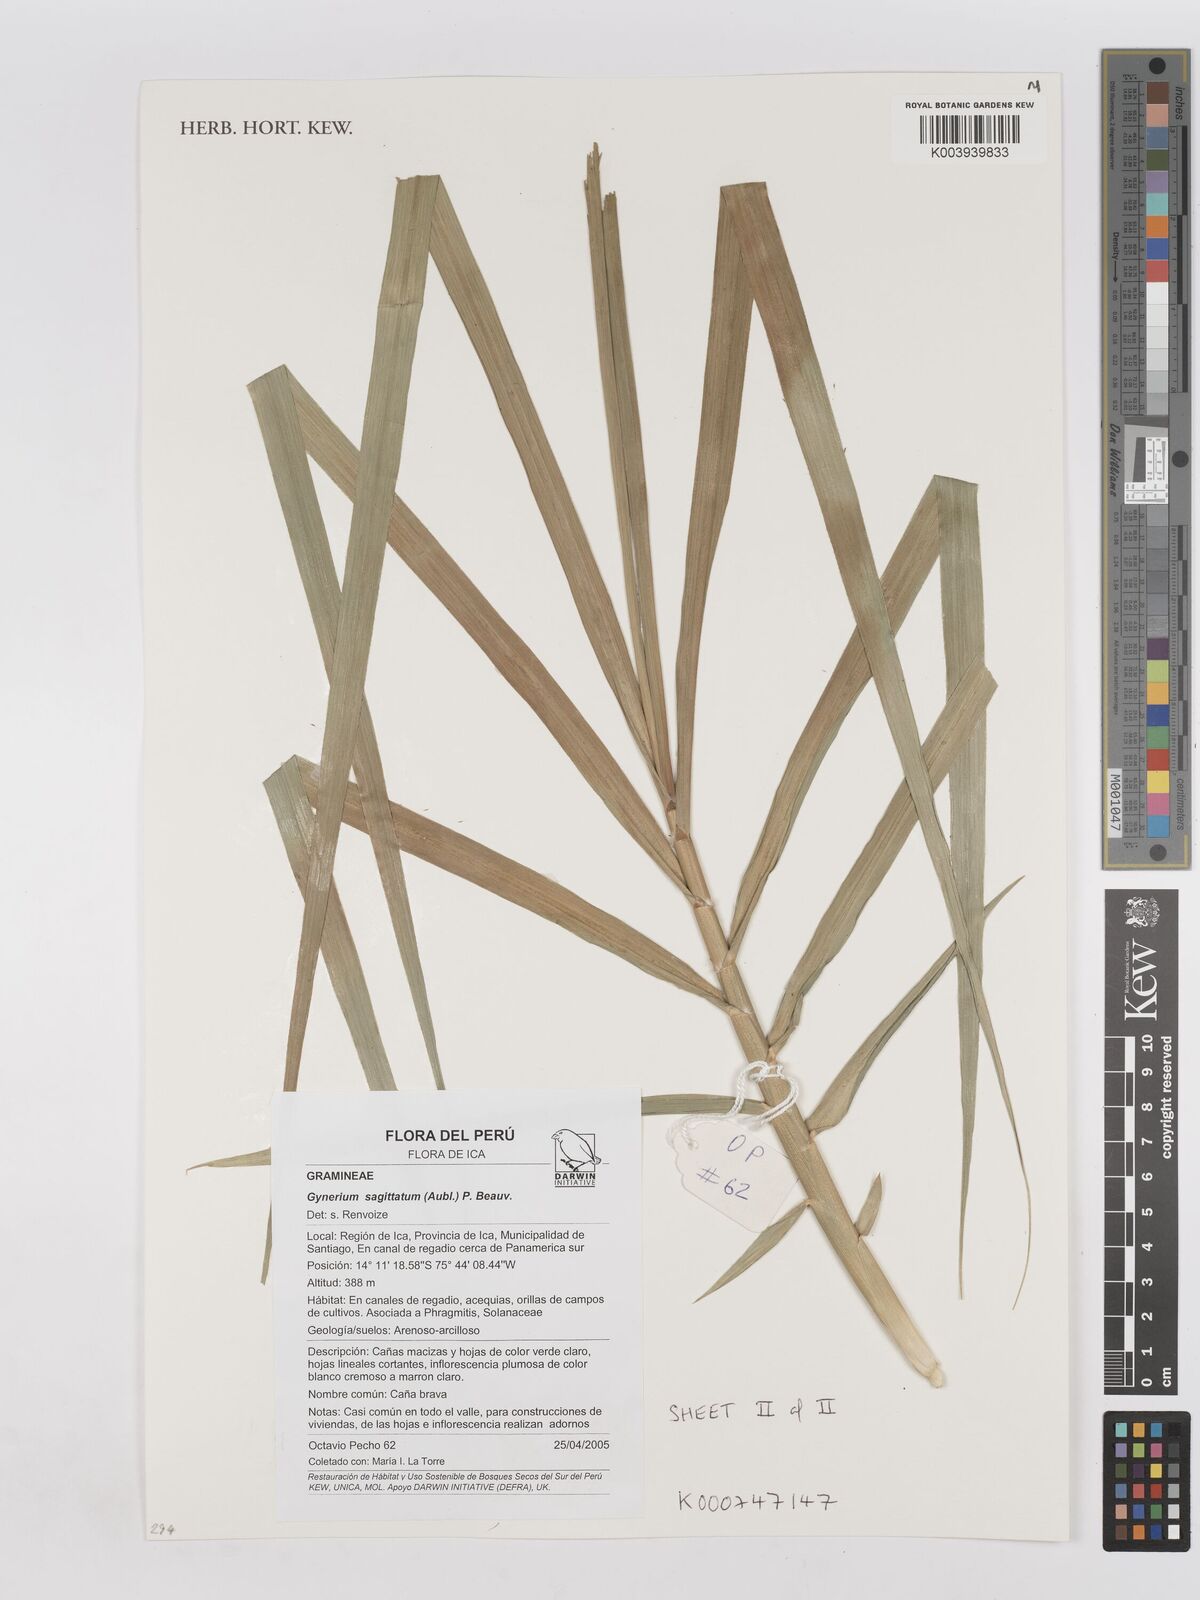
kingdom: Plantae
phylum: Tracheophyta
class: Liliopsida
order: Poales
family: Poaceae
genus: Gynerium
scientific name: Gynerium sagittatum
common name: Wild cane
